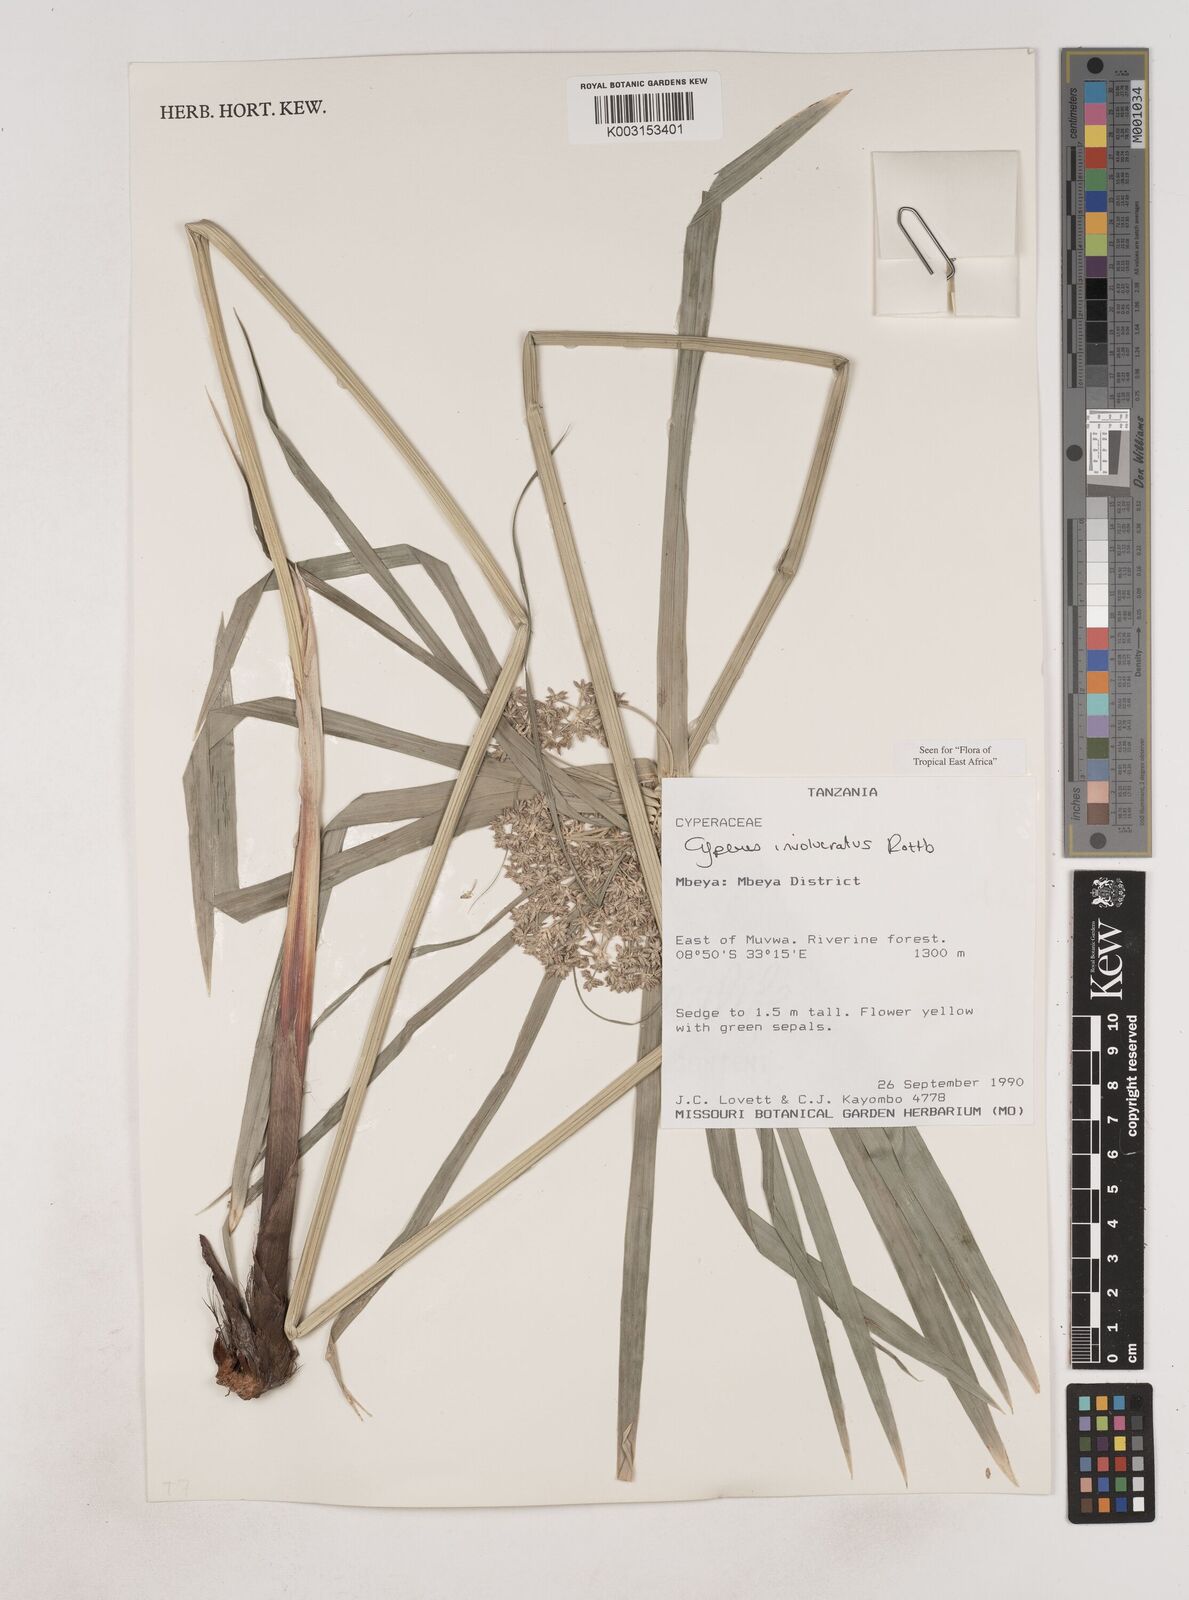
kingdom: Plantae
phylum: Tracheophyta
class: Liliopsida
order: Poales
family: Cyperaceae
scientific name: Cyperaceae
